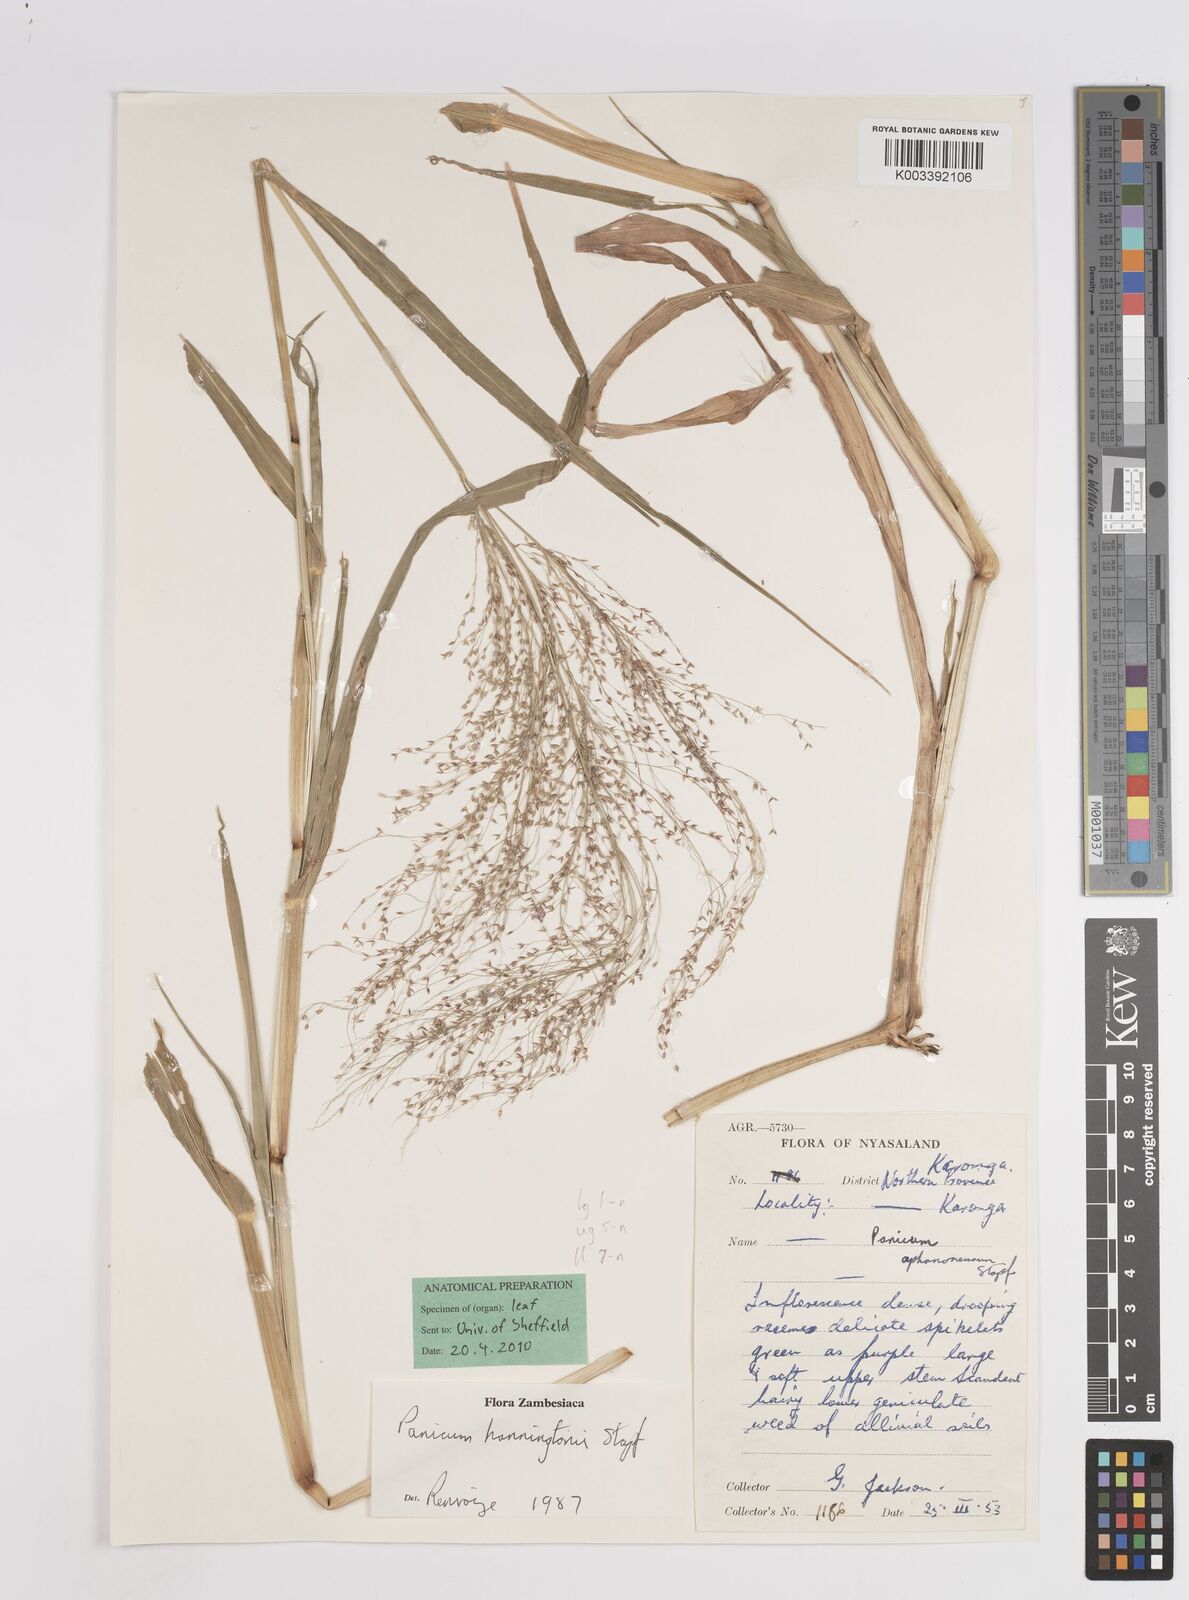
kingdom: Plantae
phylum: Tracheophyta
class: Liliopsida
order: Poales
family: Poaceae
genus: Panicum
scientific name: Panicum hanningtonii
